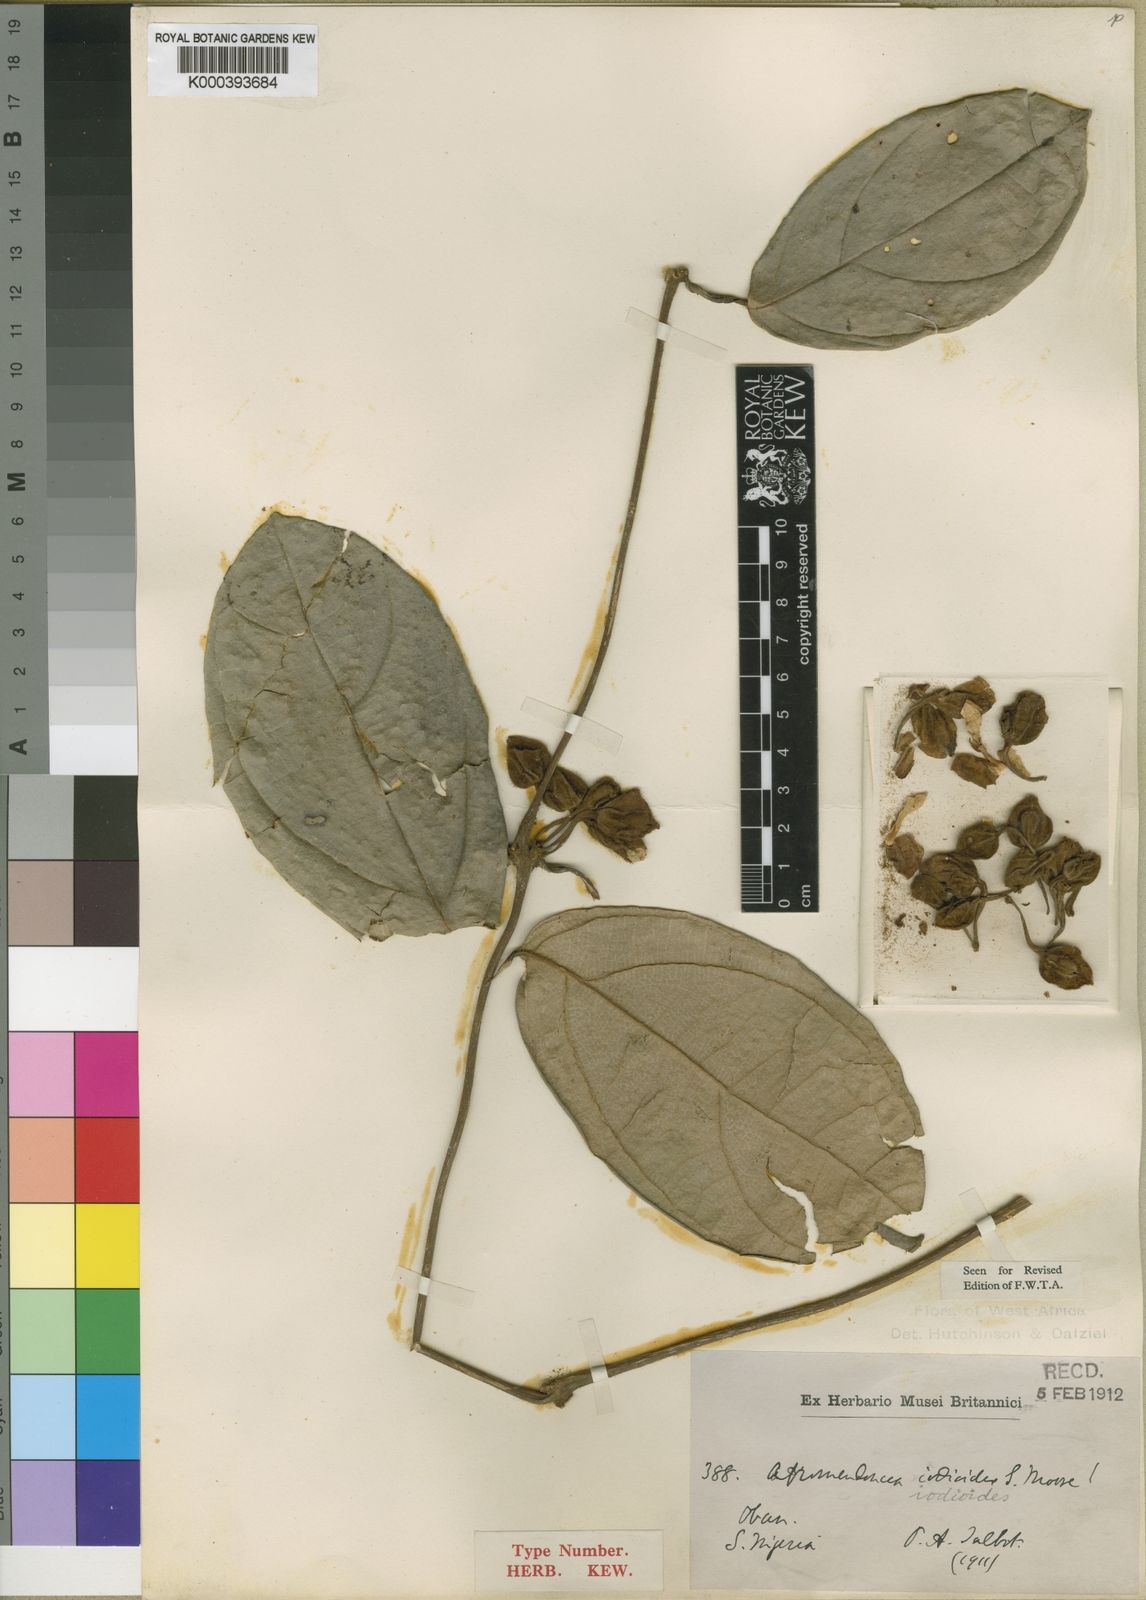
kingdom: Plantae
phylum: Tracheophyta
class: Magnoliopsida
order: Lamiales
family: Acanthaceae
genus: Mendoncia
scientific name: Mendoncia phytocrenoides
